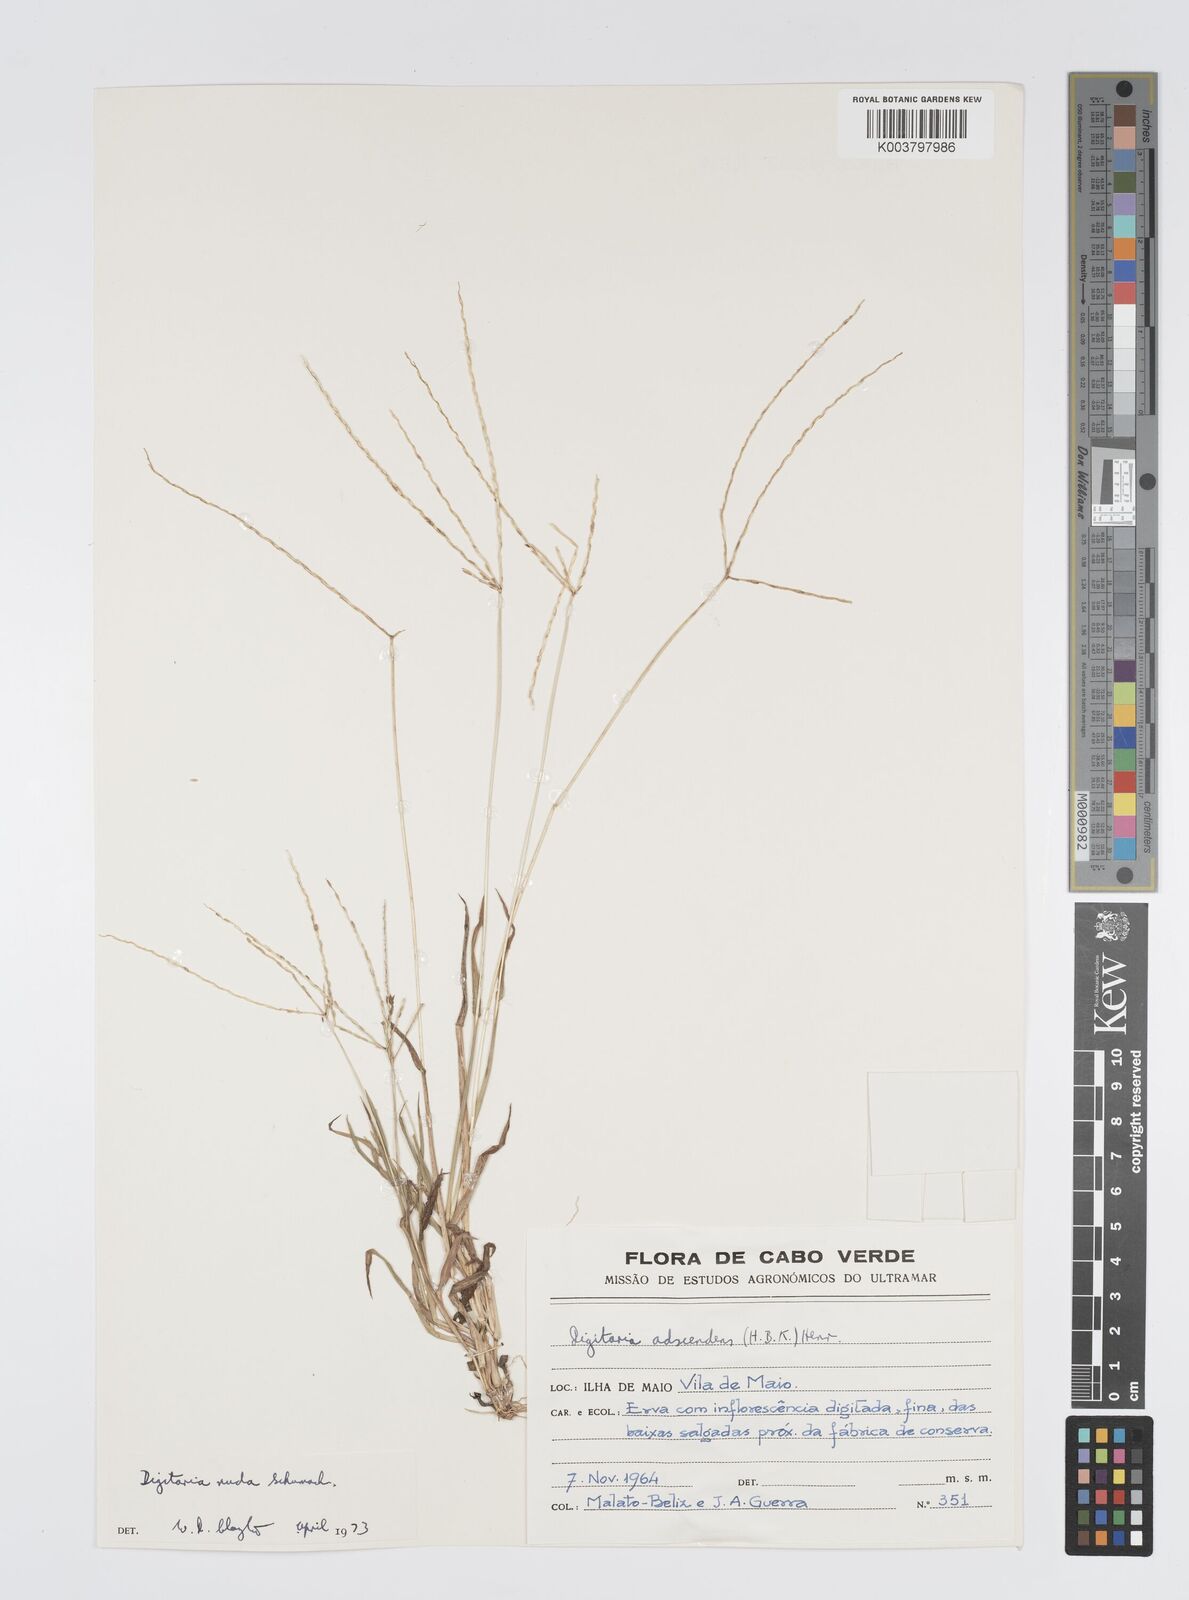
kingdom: Plantae
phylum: Tracheophyta
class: Liliopsida
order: Poales
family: Poaceae
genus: Digitaria
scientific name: Digitaria nuda
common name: Naked crabgrass
